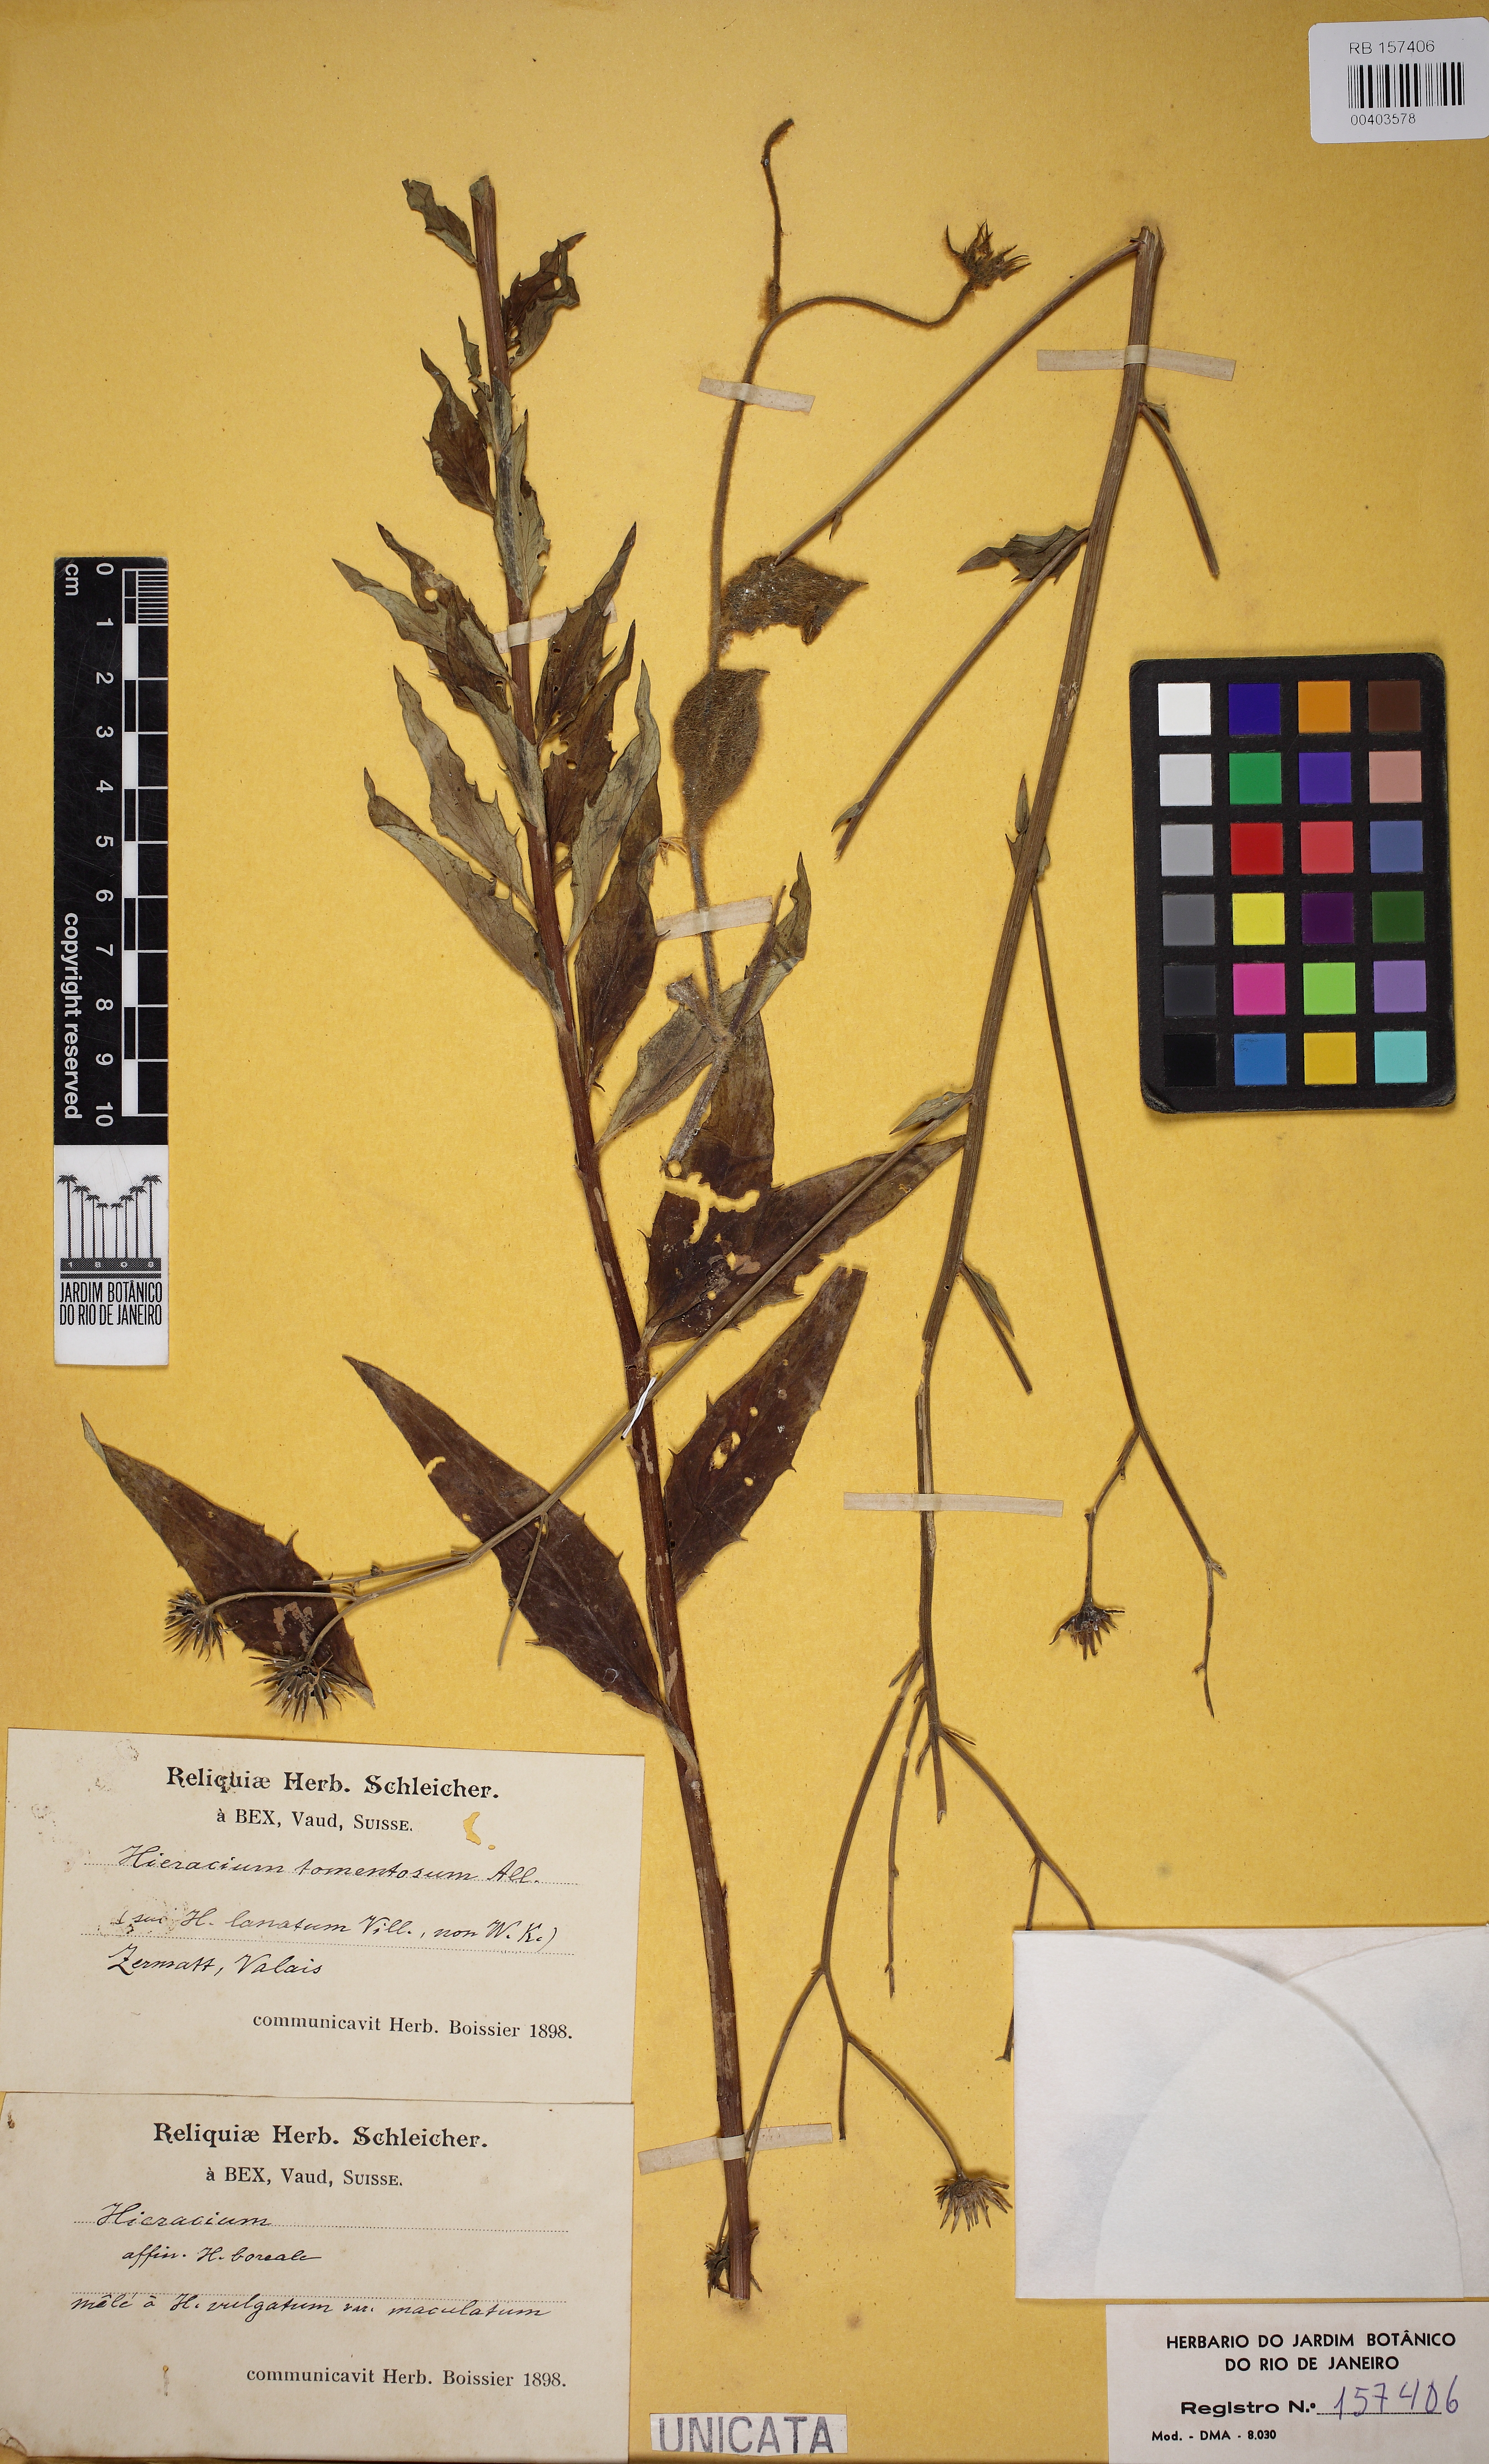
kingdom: Plantae
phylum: Tracheophyta
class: Magnoliopsida
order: Asterales
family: Asteraceae
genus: Anacyclus
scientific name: Anacyclus clavatus
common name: Whitebuttons
